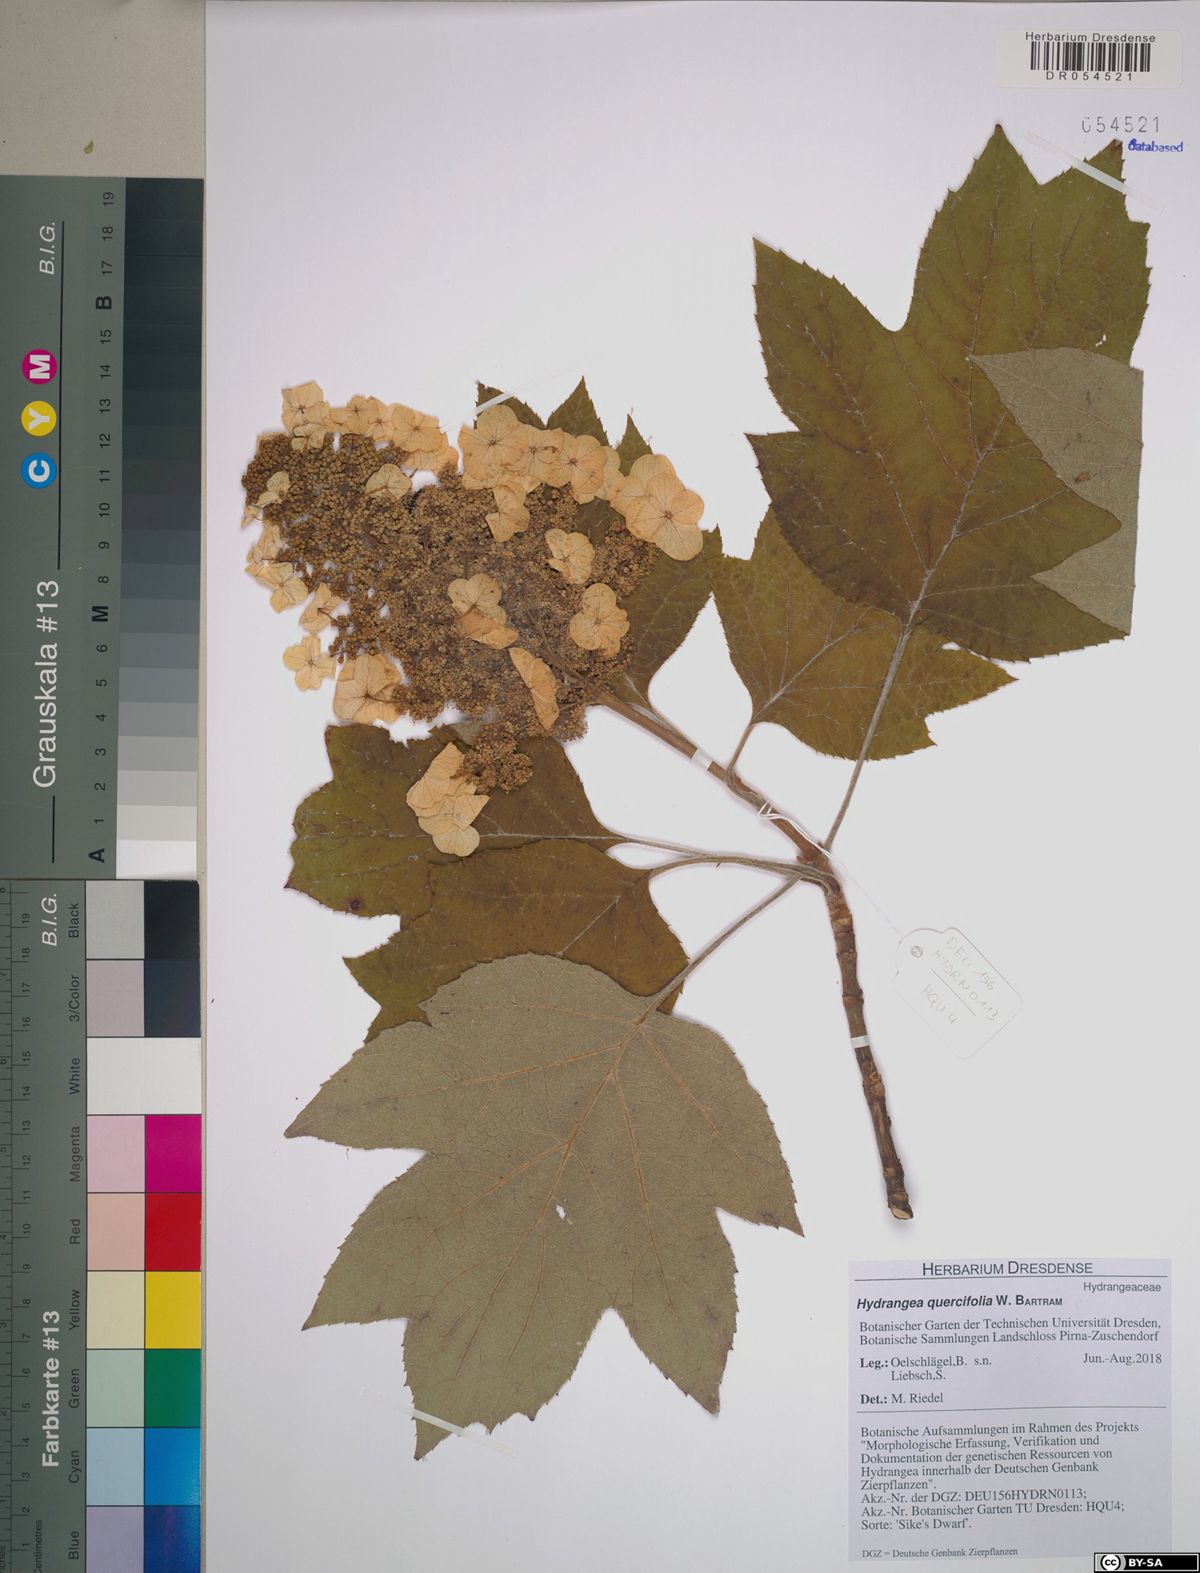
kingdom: Plantae
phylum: Tracheophyta
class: Magnoliopsida
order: Cornales
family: Hydrangeaceae
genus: Hydrangea
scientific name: Hydrangea quercifolia
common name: Oak-leaf hydrangea
